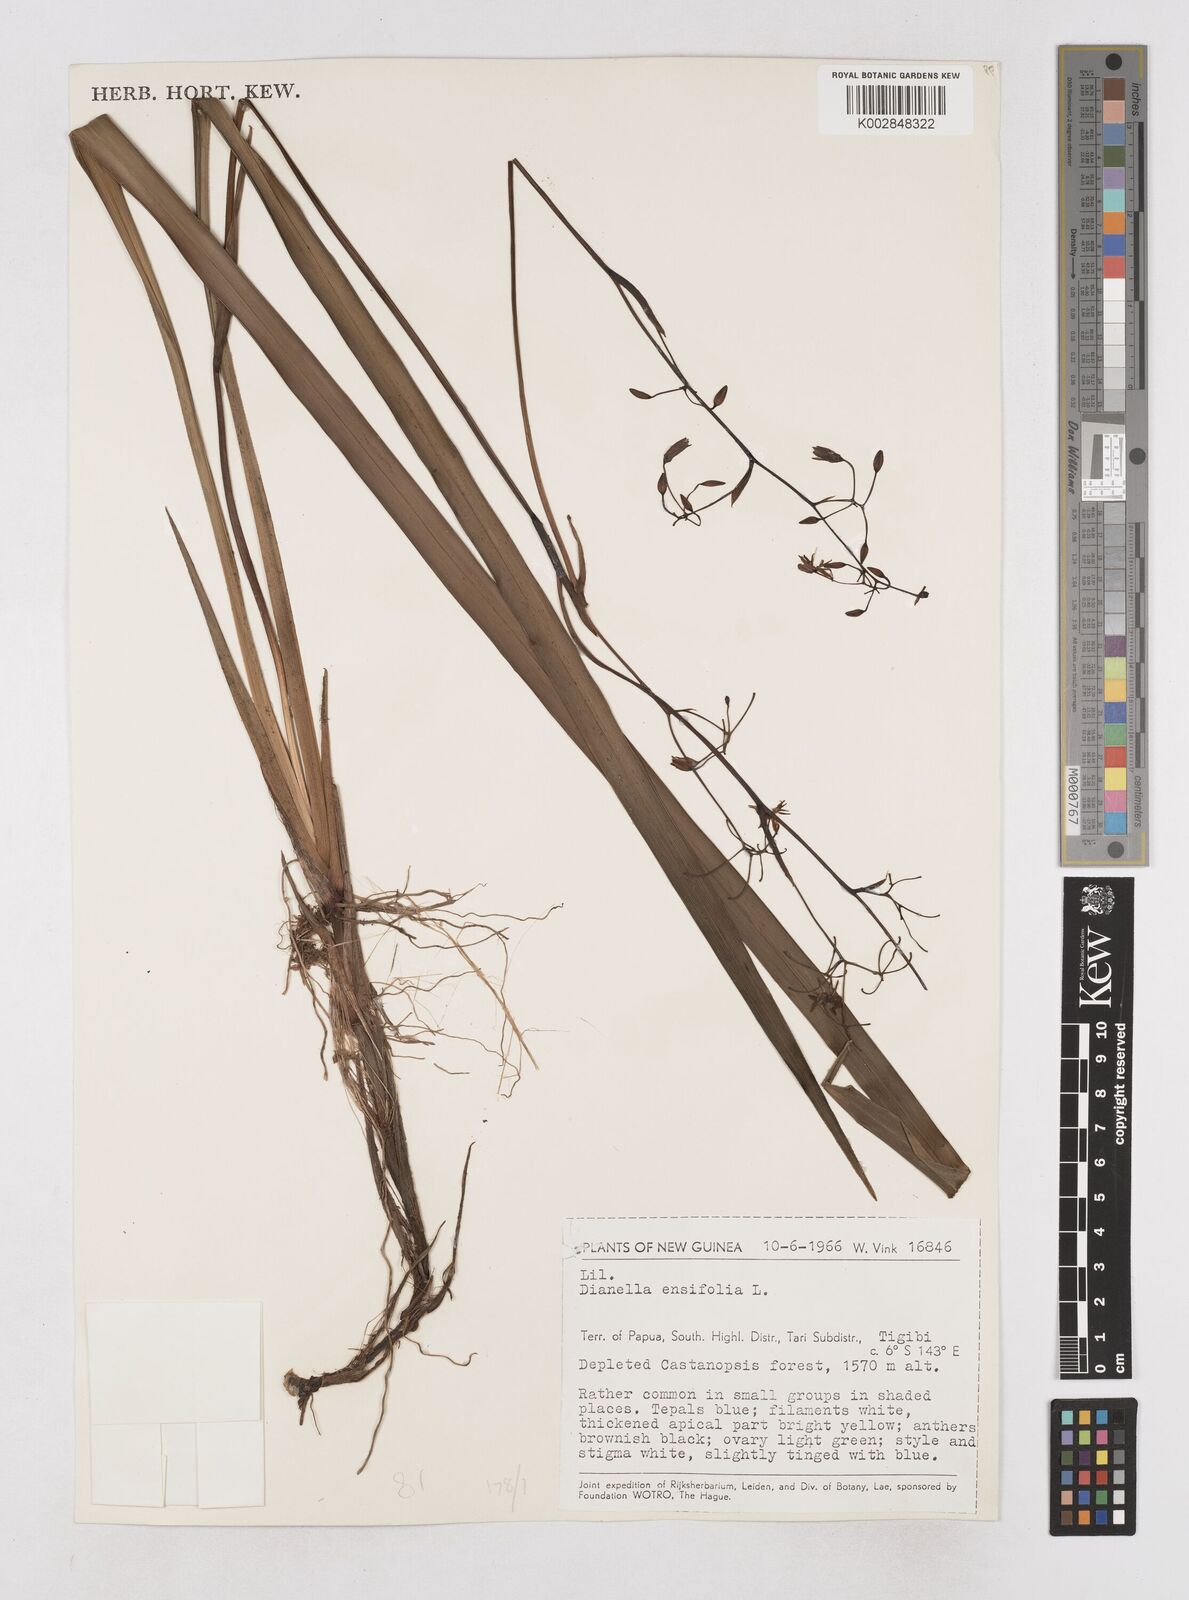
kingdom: Plantae
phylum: Tracheophyta
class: Liliopsida
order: Asparagales
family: Asphodelaceae
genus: Dianella
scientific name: Dianella ensifolia
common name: New zealand lilyplant
